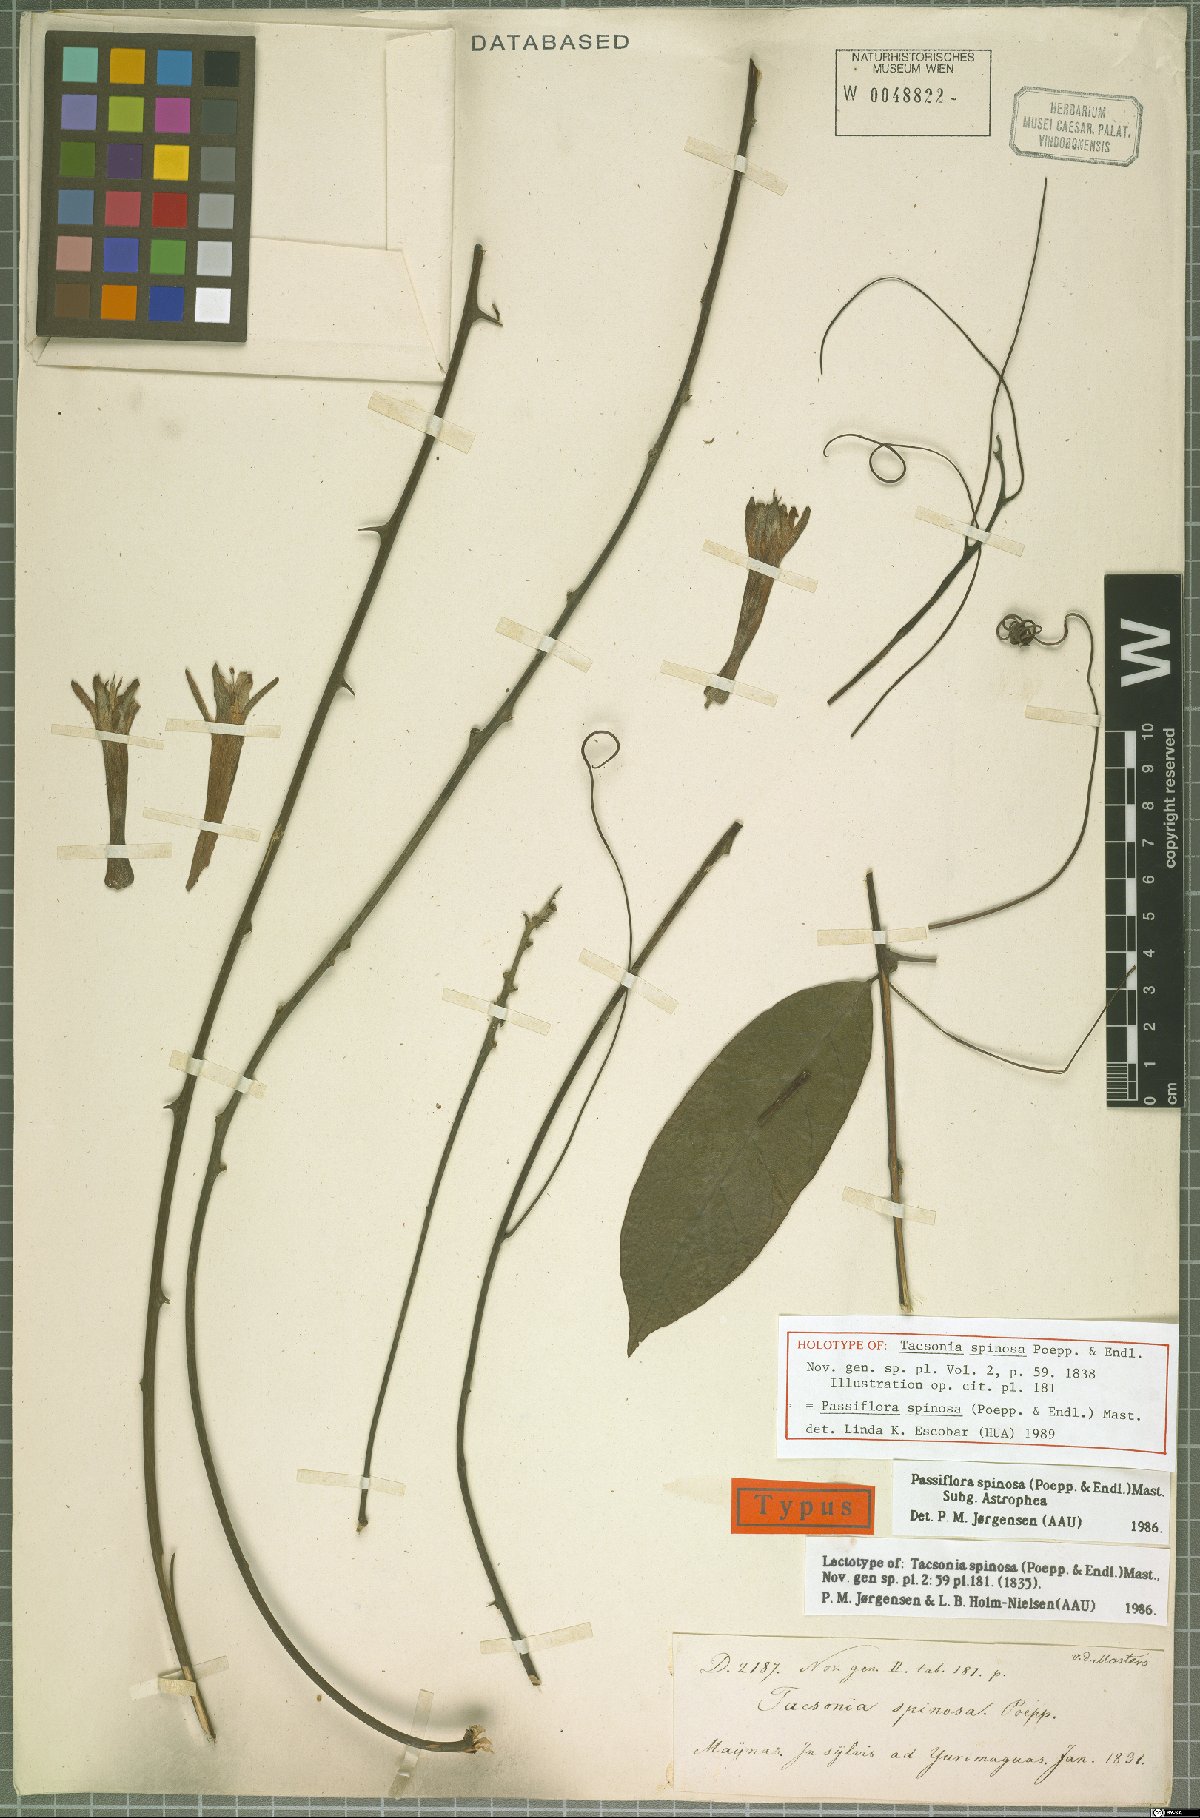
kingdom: Plantae
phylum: Tracheophyta
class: Magnoliopsida
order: Malpighiales
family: Passifloraceae
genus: Passiflora
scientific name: Passiflora spinosa
